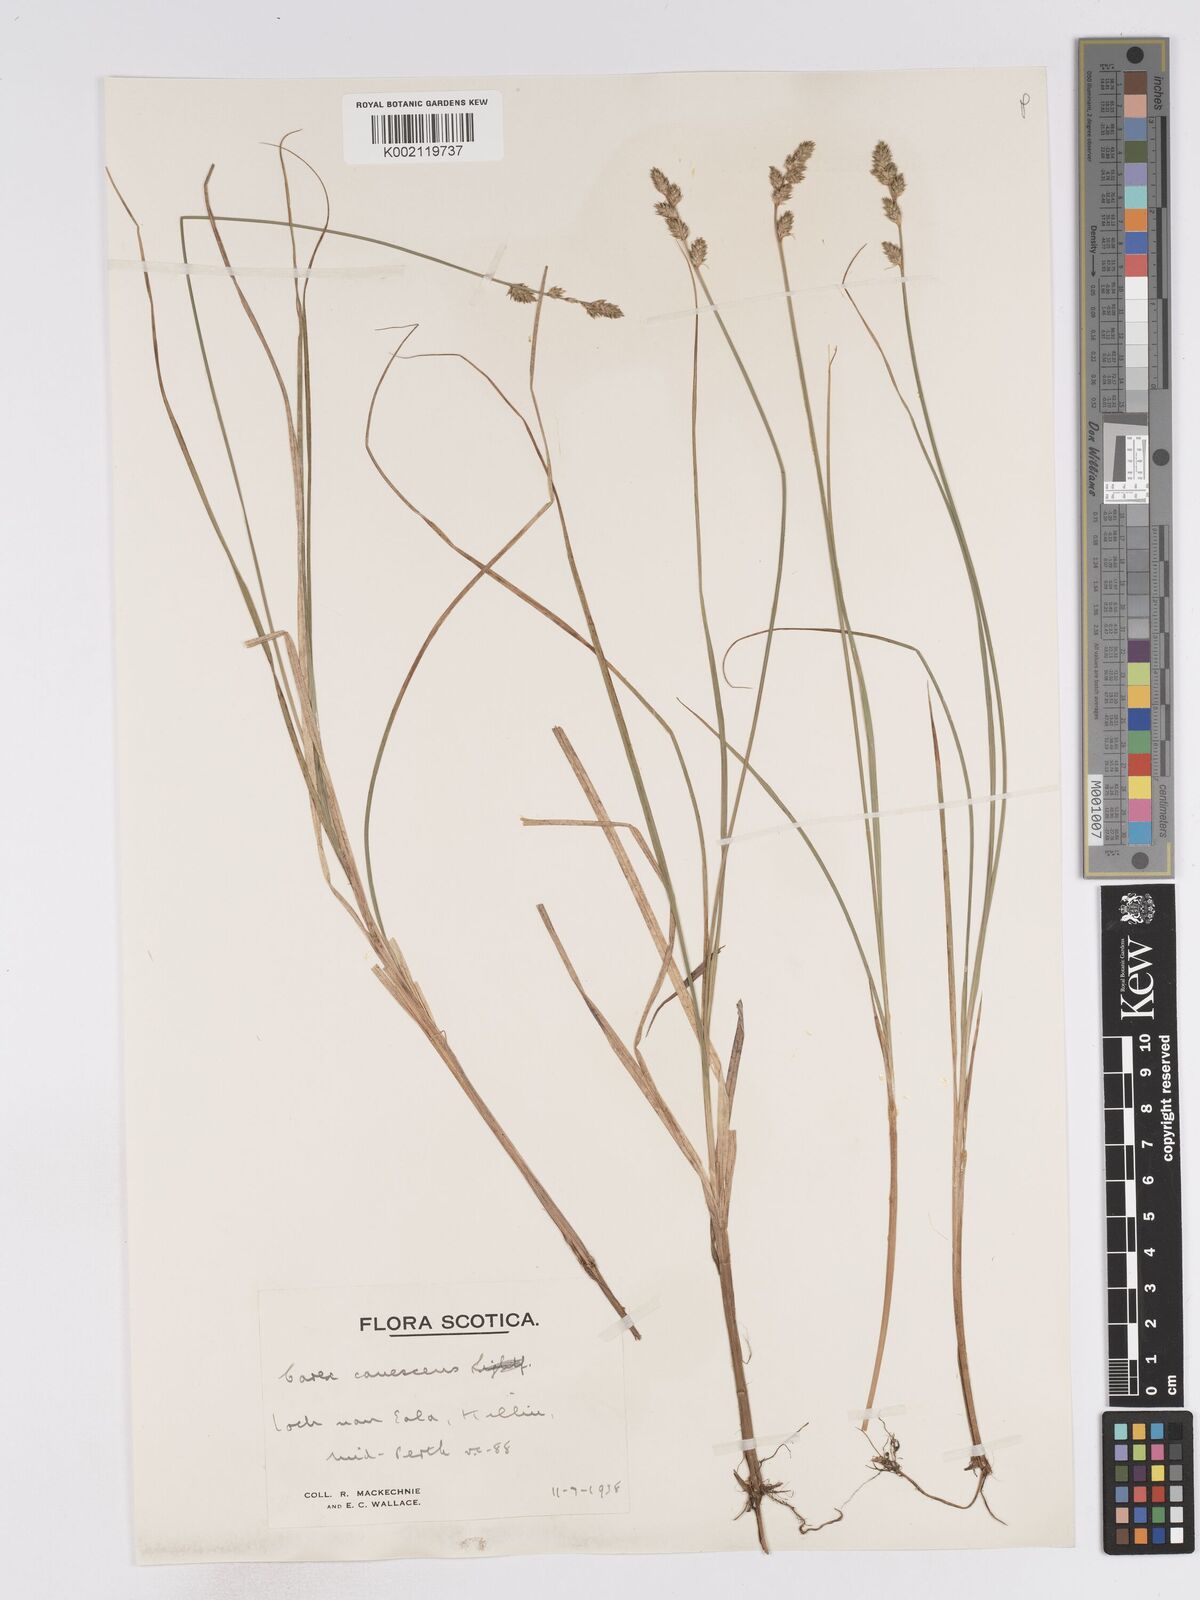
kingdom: Plantae
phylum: Tracheophyta
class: Liliopsida
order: Poales
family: Cyperaceae
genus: Carex
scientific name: Carex curta
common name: White sedge
